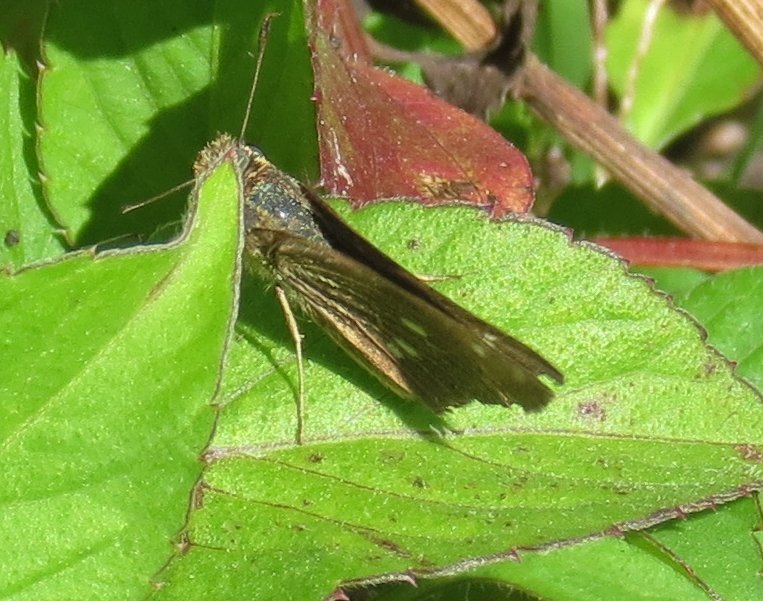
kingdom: Animalia
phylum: Arthropoda
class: Insecta
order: Lepidoptera
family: Hesperiidae
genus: Oligoria
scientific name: Oligoria maculata
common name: Twin-spot Skipper
